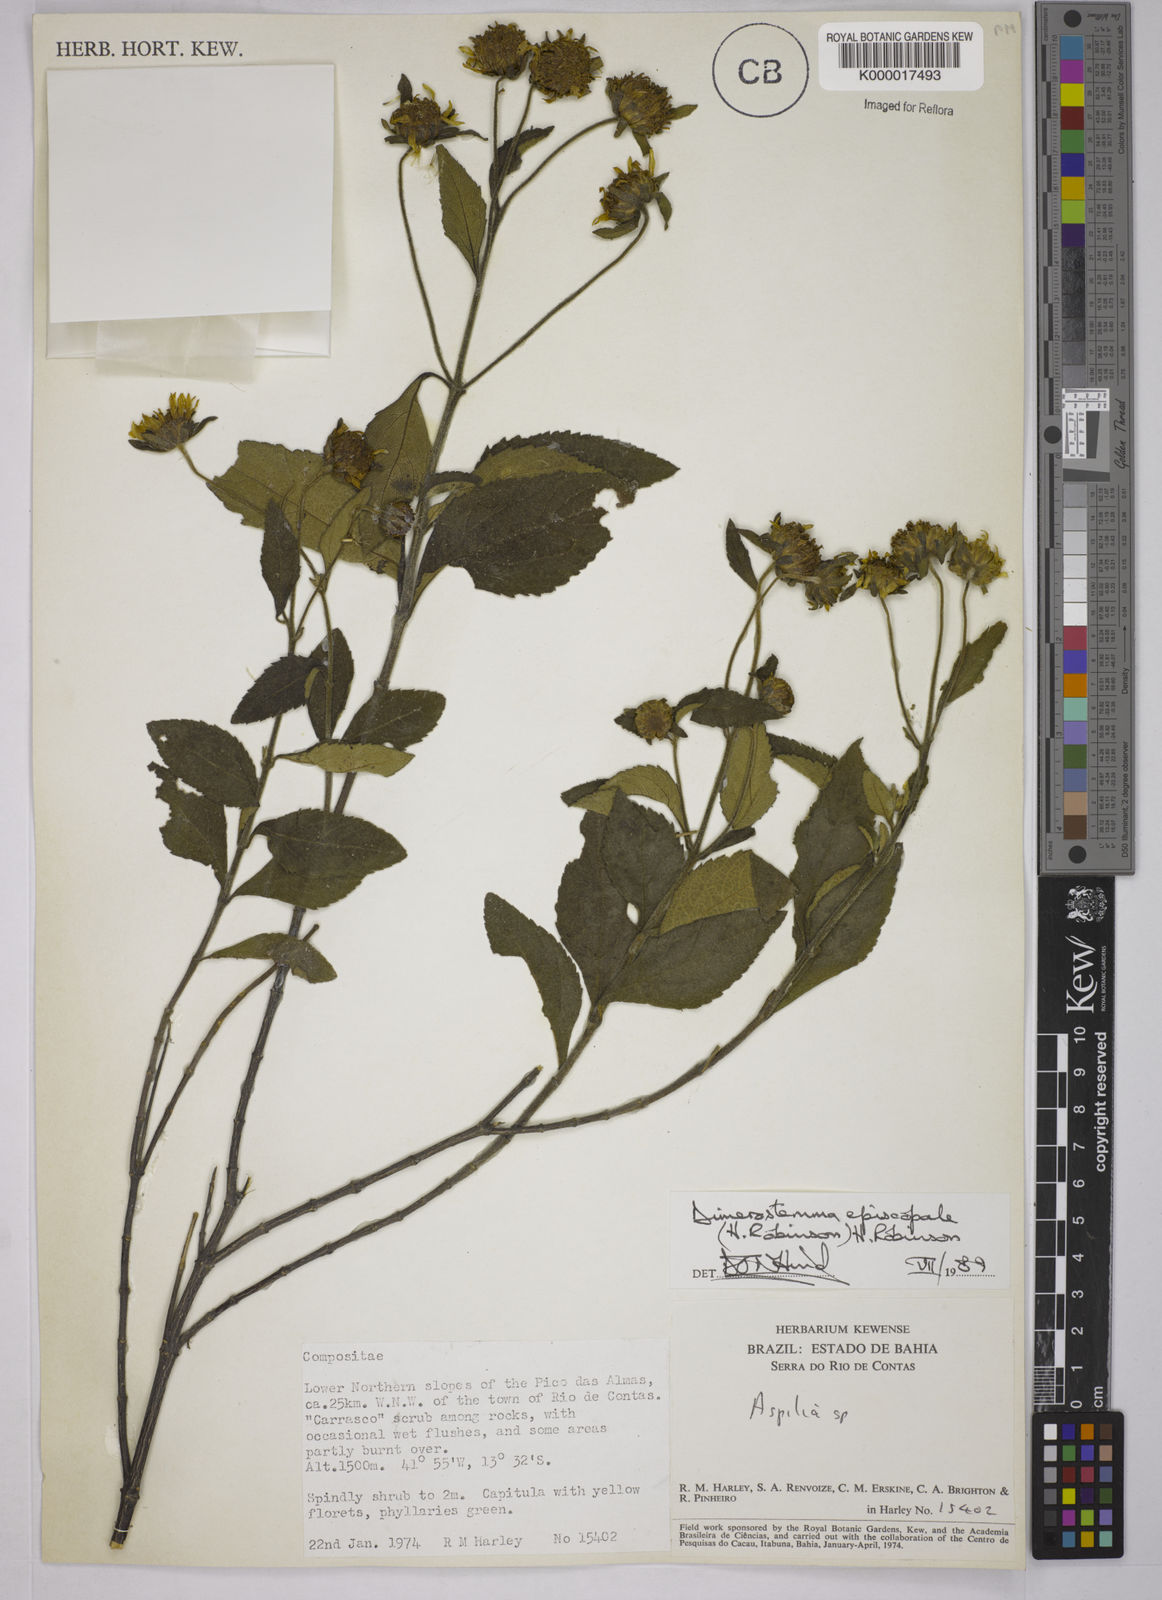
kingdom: Plantae
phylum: Tracheophyta
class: Magnoliopsida
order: Asterales
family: Asteraceae
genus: Dimerostemma
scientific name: Dimerostemma episcopale
